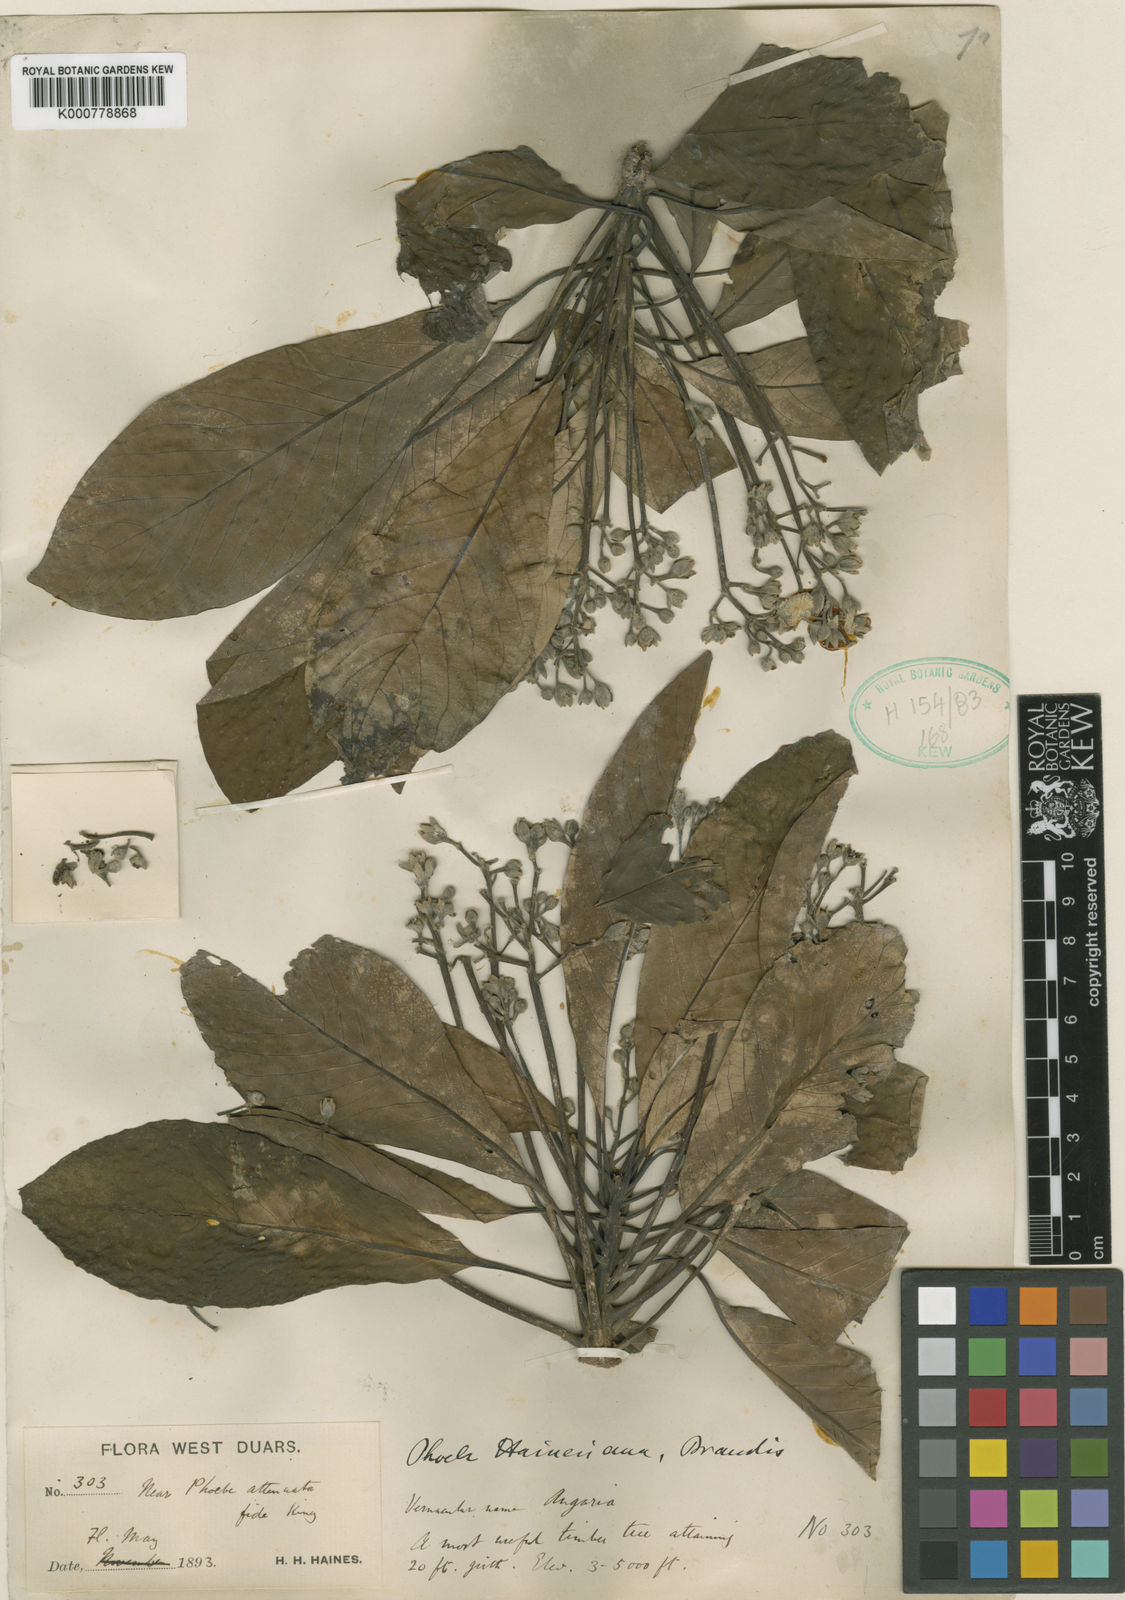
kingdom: Plantae
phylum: Tracheophyta
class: Magnoliopsida
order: Laurales
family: Lauraceae
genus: Phoebe
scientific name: Phoebe bootanica
